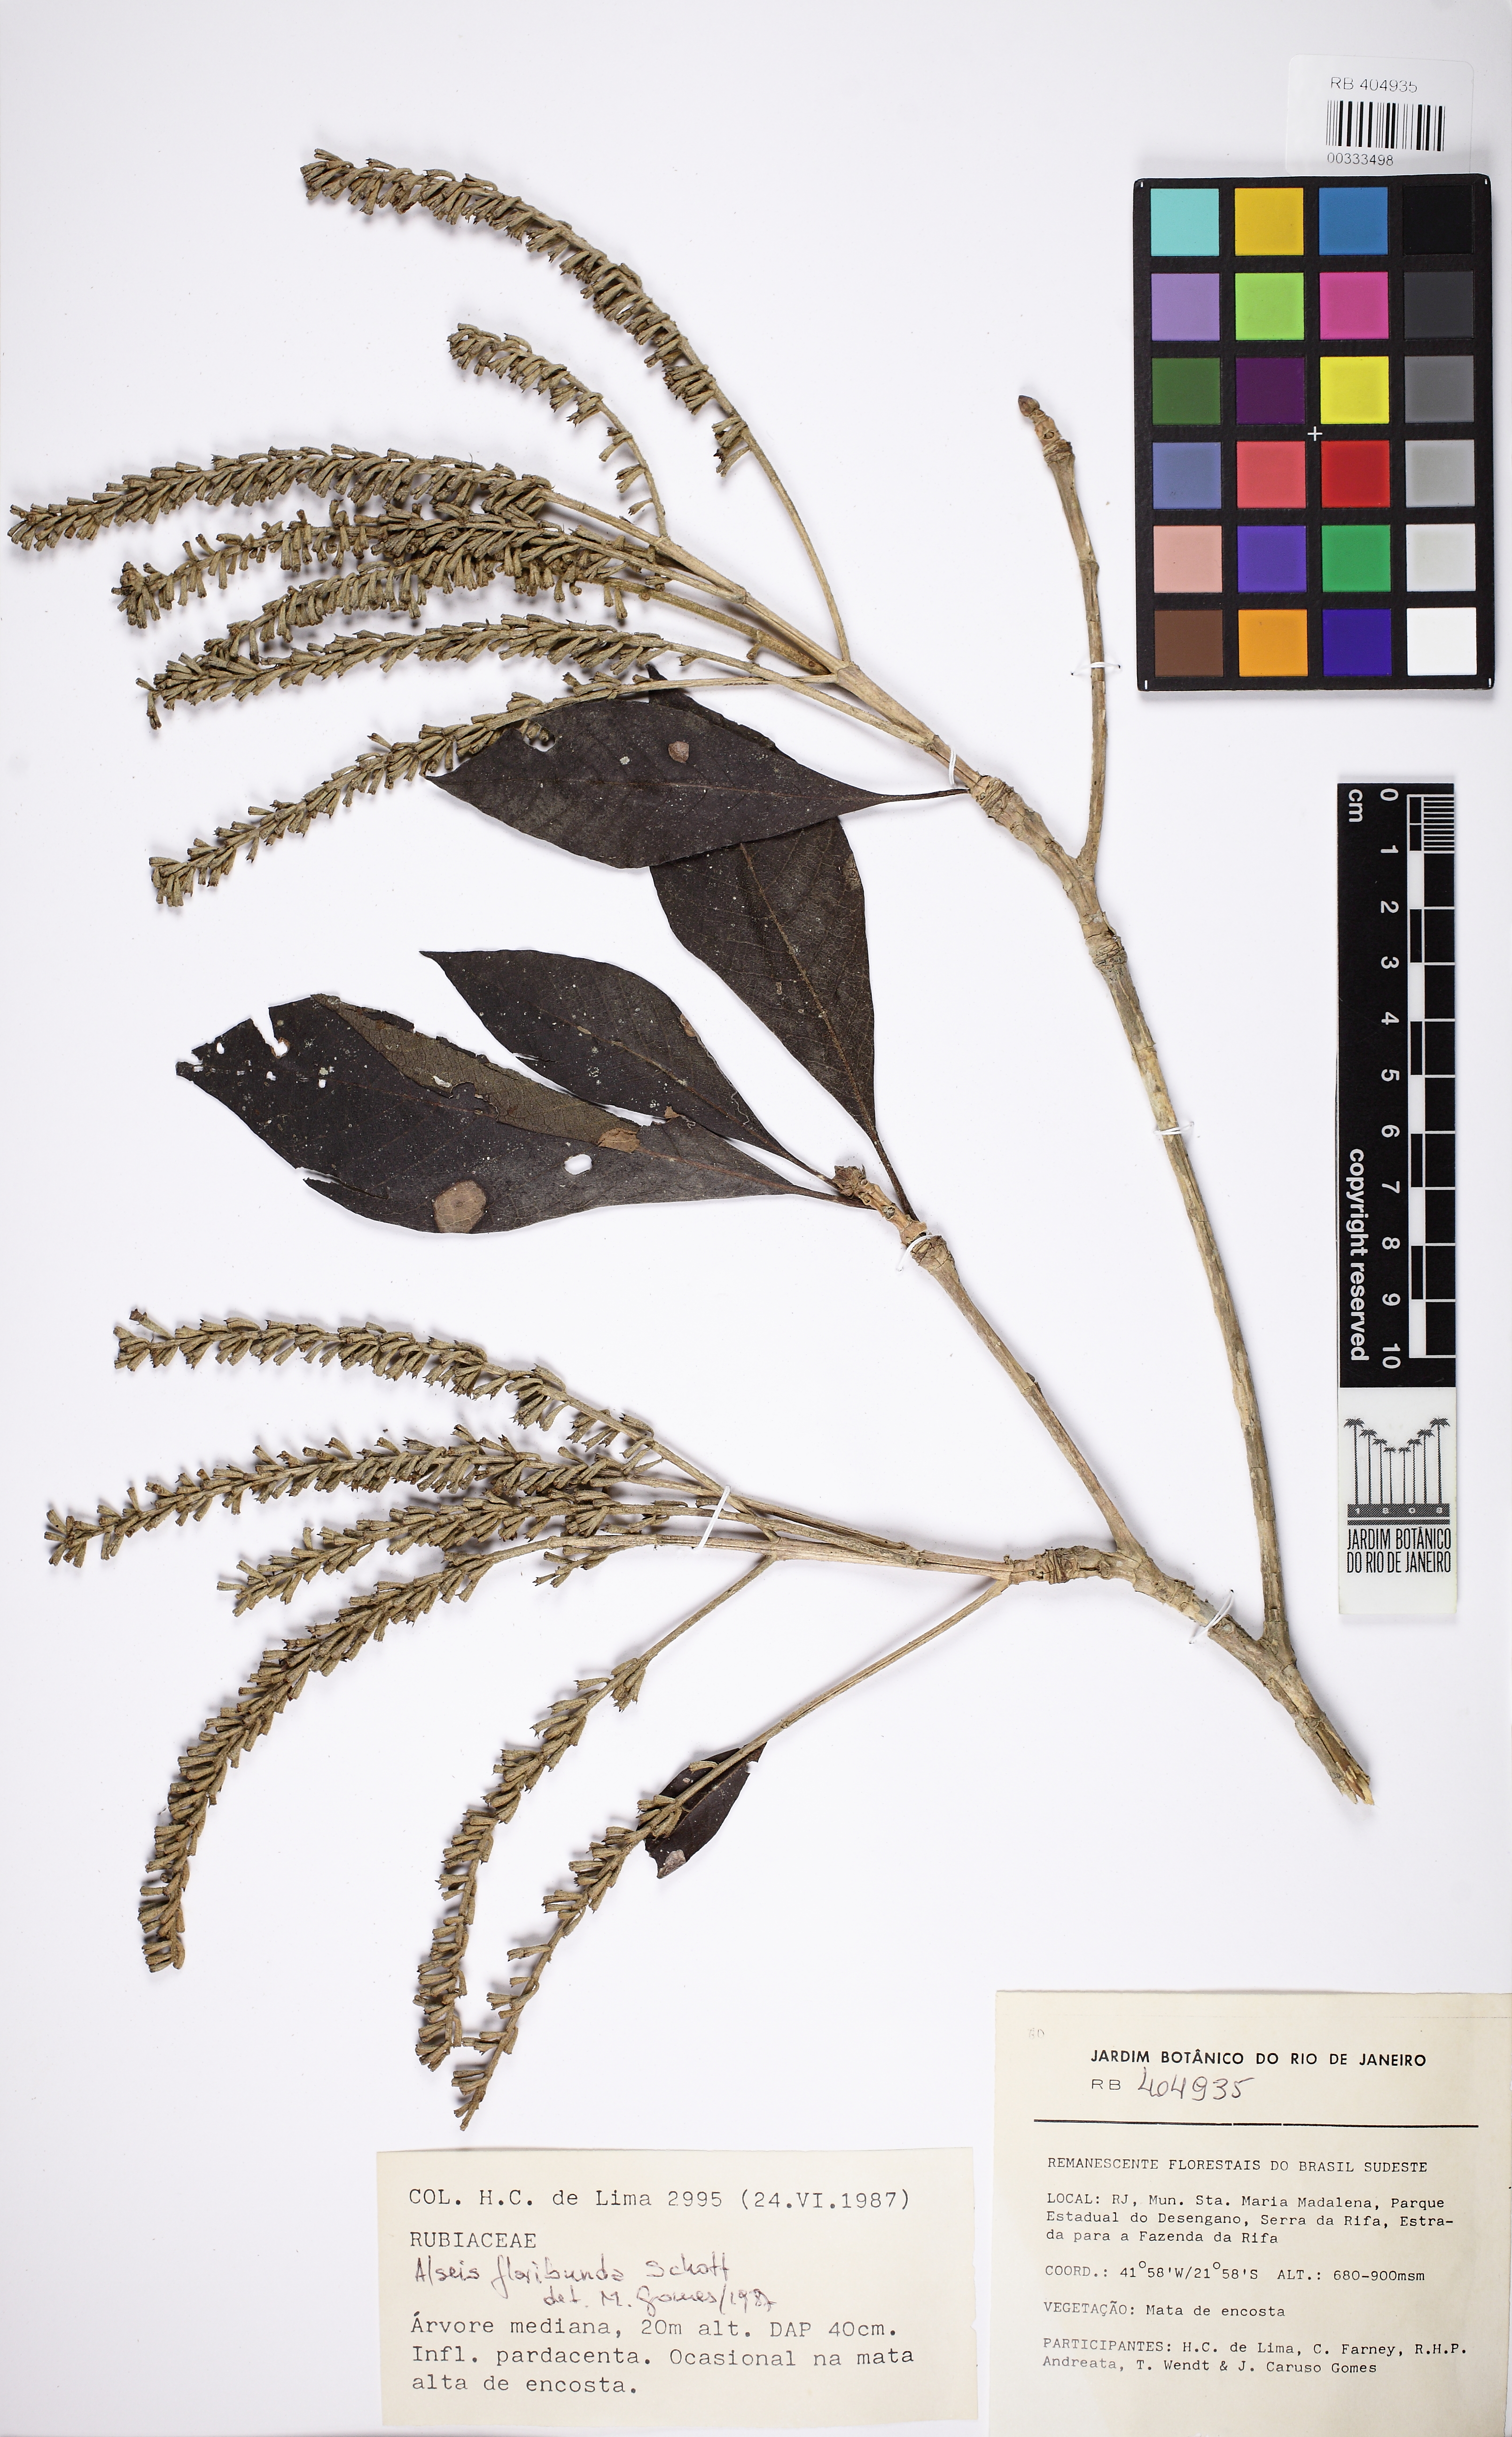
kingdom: Plantae
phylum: Tracheophyta
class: Magnoliopsida
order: Gentianales
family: Rubiaceae
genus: Alseis
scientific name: Alseis floribunda
